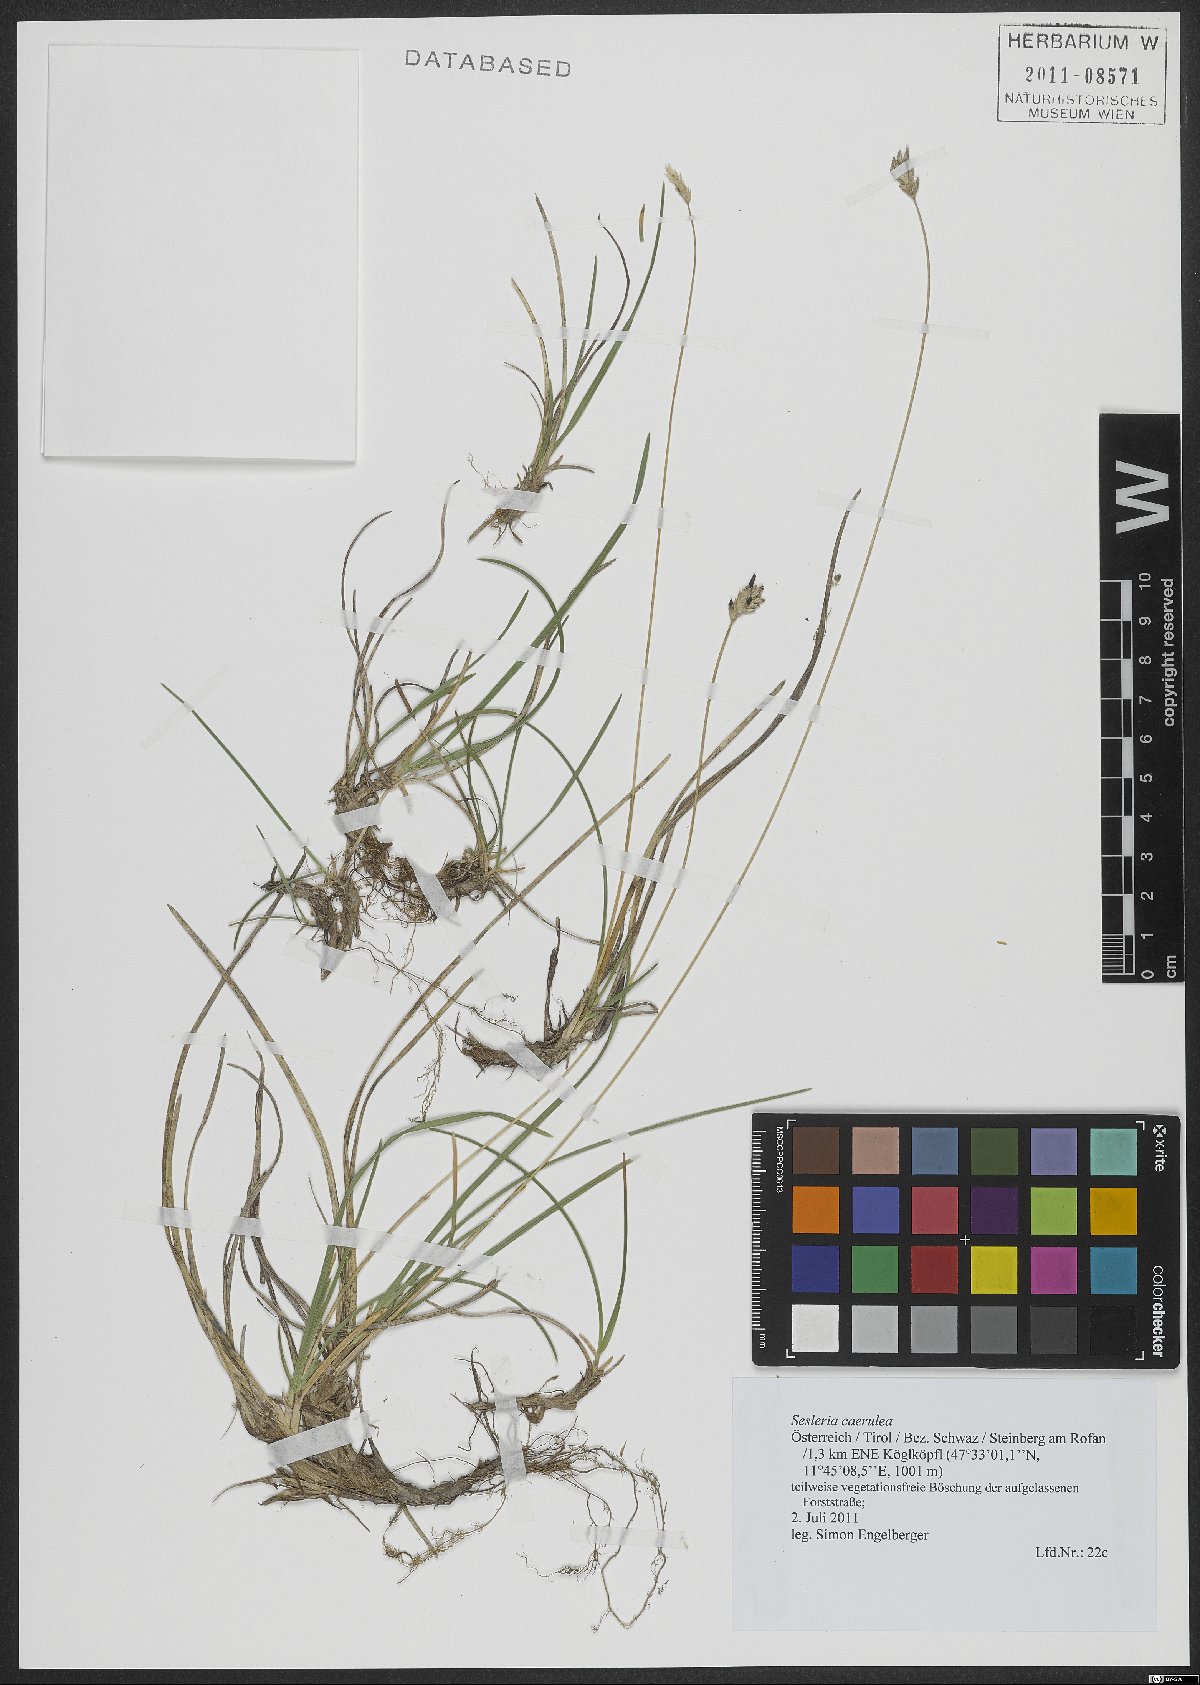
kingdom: Plantae
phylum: Tracheophyta
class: Liliopsida
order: Poales
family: Poaceae
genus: Sesleria
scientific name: Sesleria caerulea
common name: Blue moor-grass
